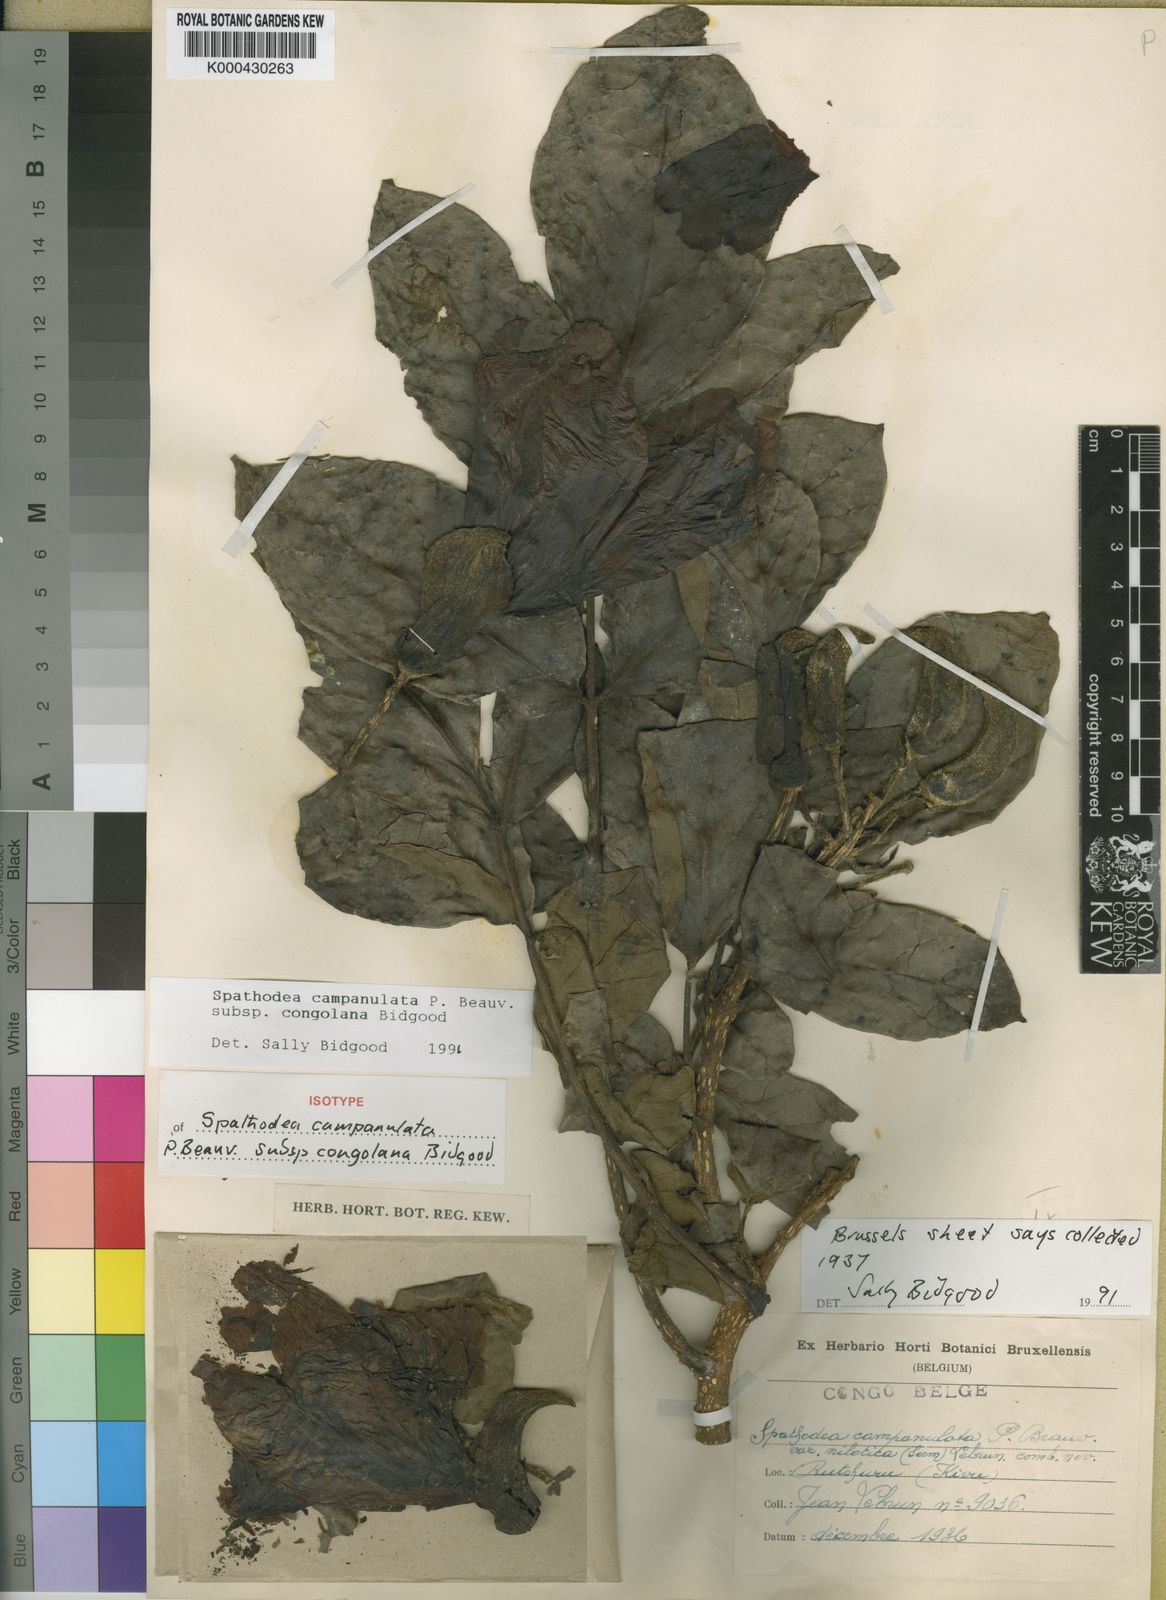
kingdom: Plantae
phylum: Tracheophyta
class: Magnoliopsida
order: Lamiales
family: Bignoniaceae
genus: Spathodea
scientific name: Spathodea campanulata
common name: African tuliptree
